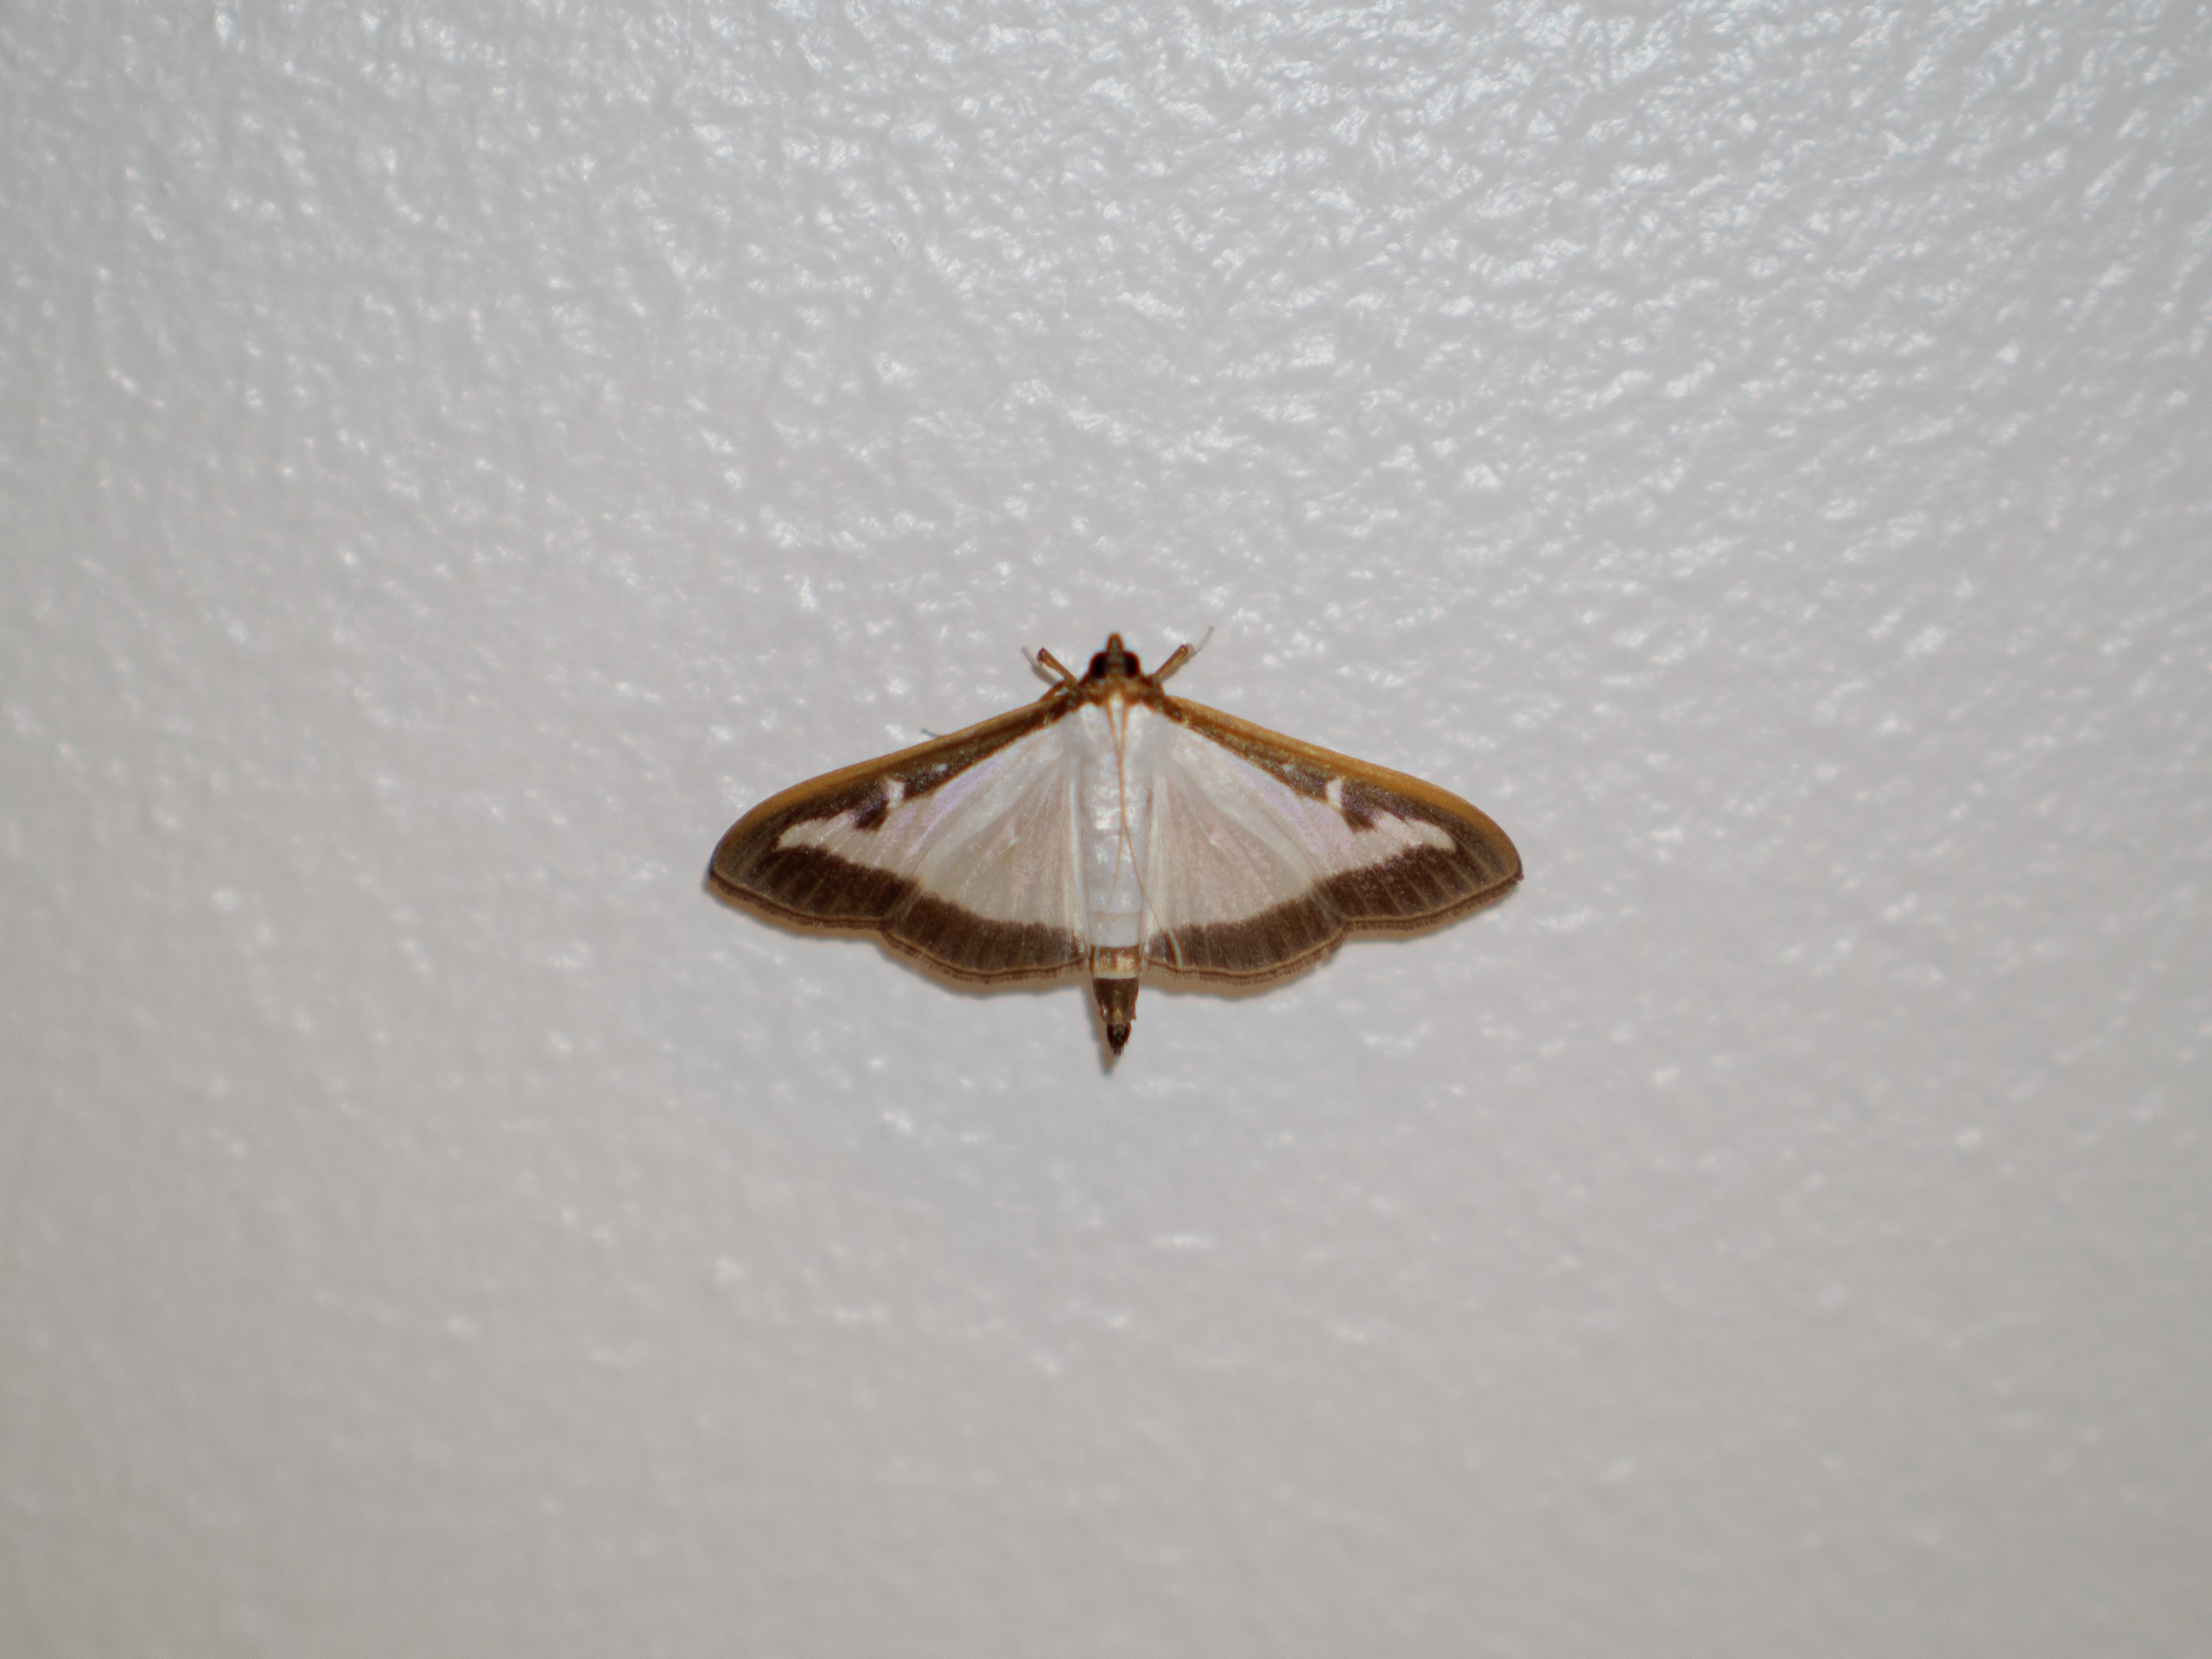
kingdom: Animalia
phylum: Arthropoda
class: Insecta
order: Lepidoptera
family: Crambidae
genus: Cydalima
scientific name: Cydalima perspectalis
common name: Buksbomhalvmøl
